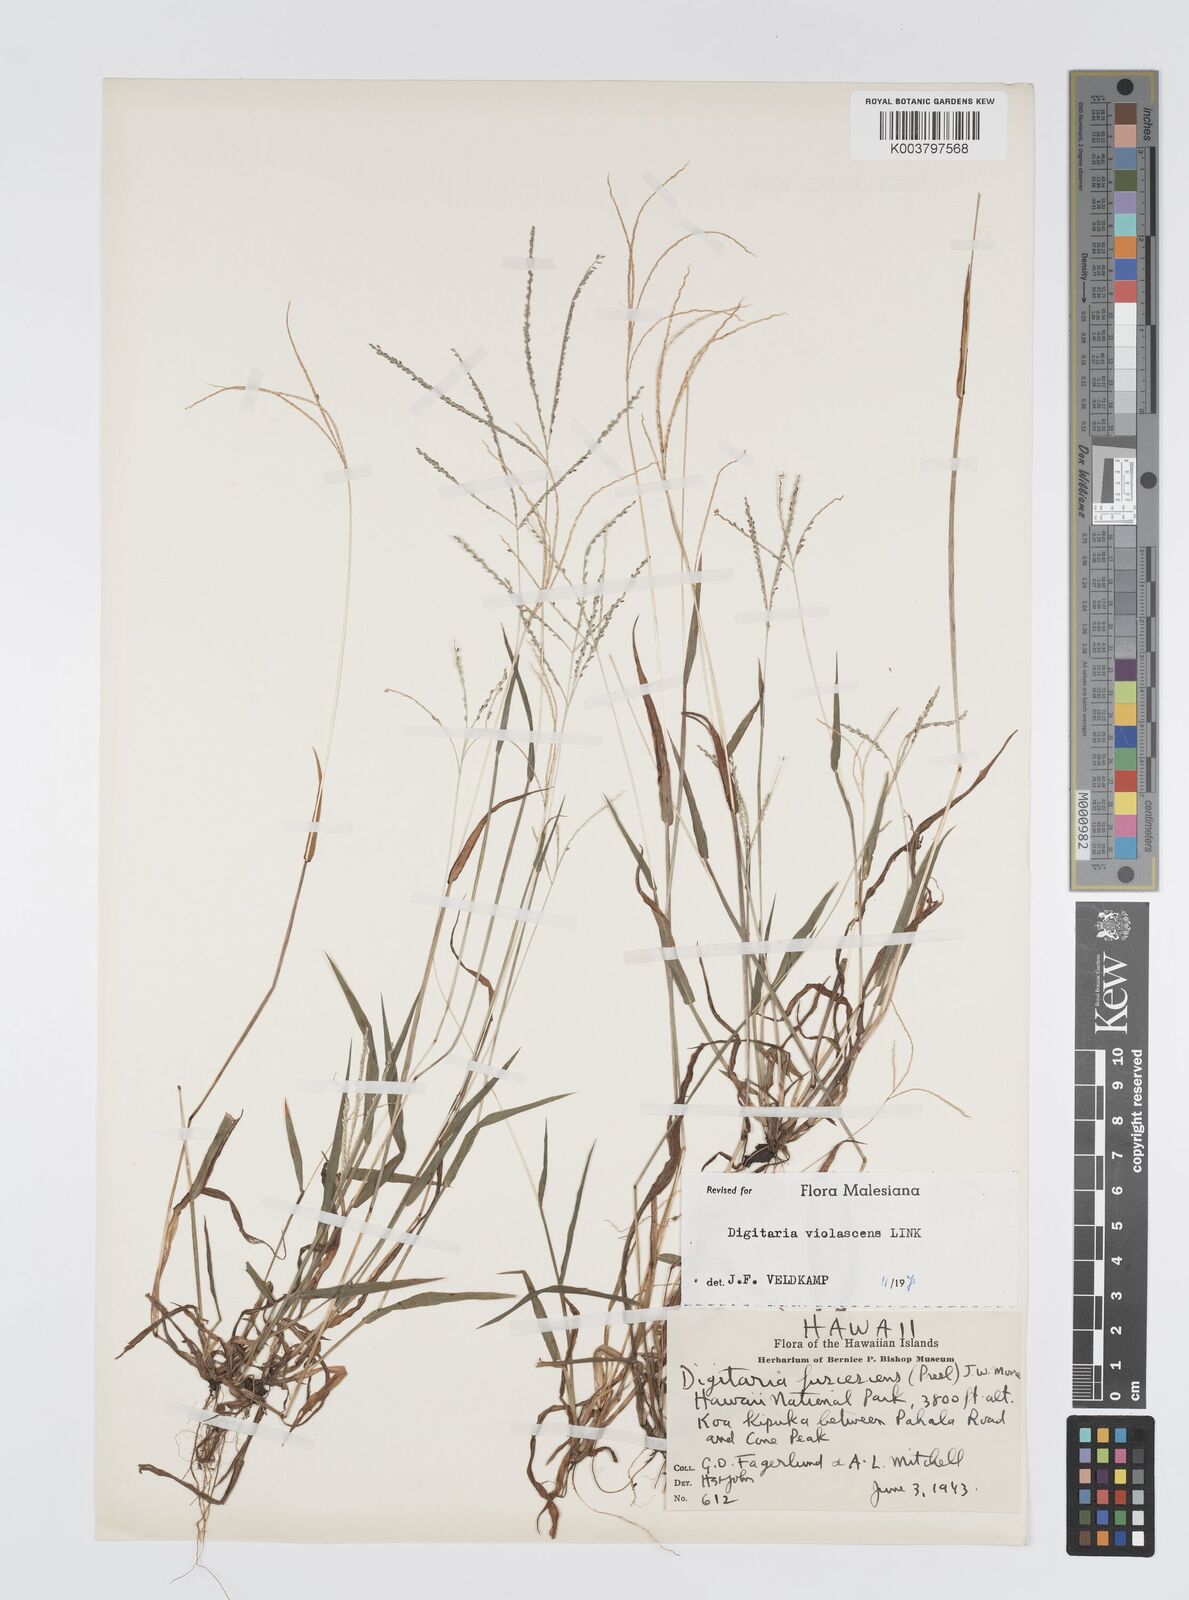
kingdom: Plantae
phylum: Tracheophyta
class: Liliopsida
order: Poales
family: Poaceae
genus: Digitaria
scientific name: Digitaria violascens
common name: Violet crabgrass
